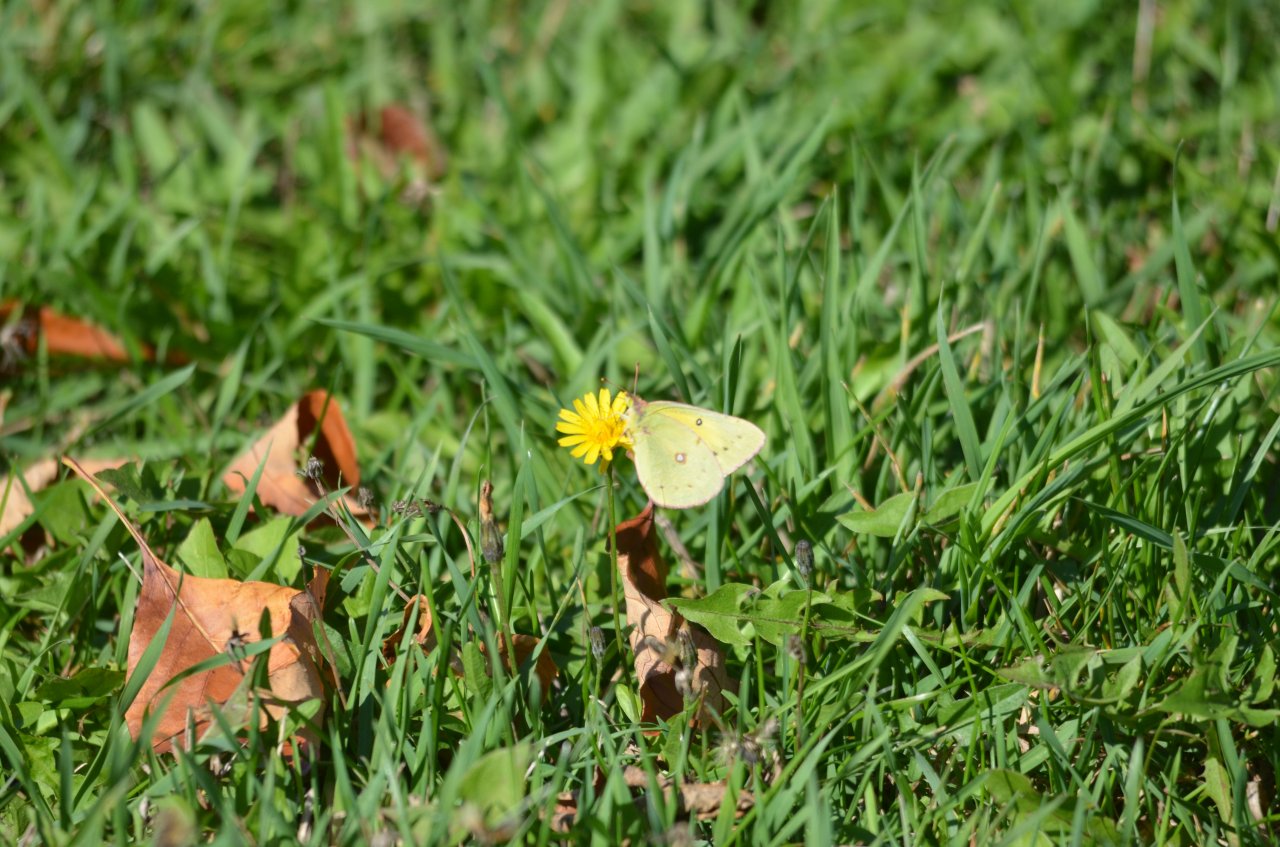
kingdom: Animalia
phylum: Arthropoda
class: Insecta
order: Lepidoptera
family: Pieridae
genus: Colias
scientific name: Colias philodice
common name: Clouded Sulphur
